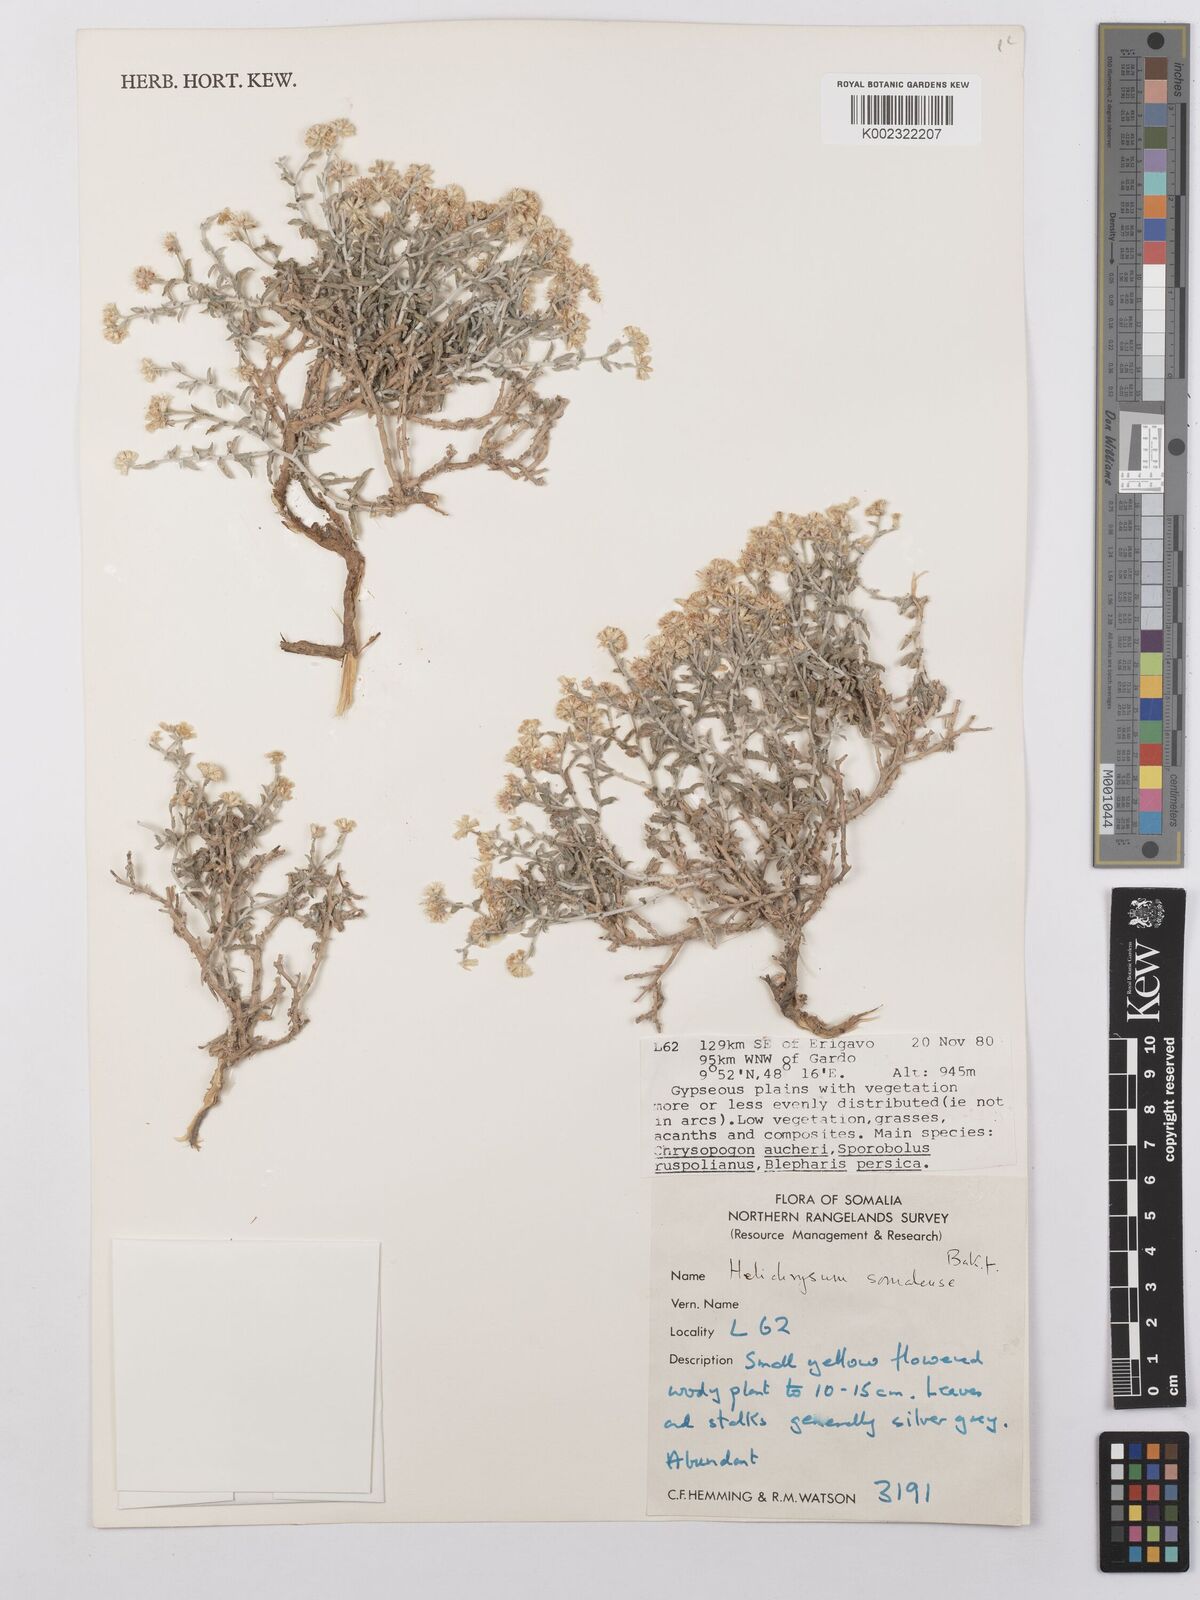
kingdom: Plantae
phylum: Tracheophyta
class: Magnoliopsida
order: Asterales
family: Asteraceae
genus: Helichrysum
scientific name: Helichrysum somalense
